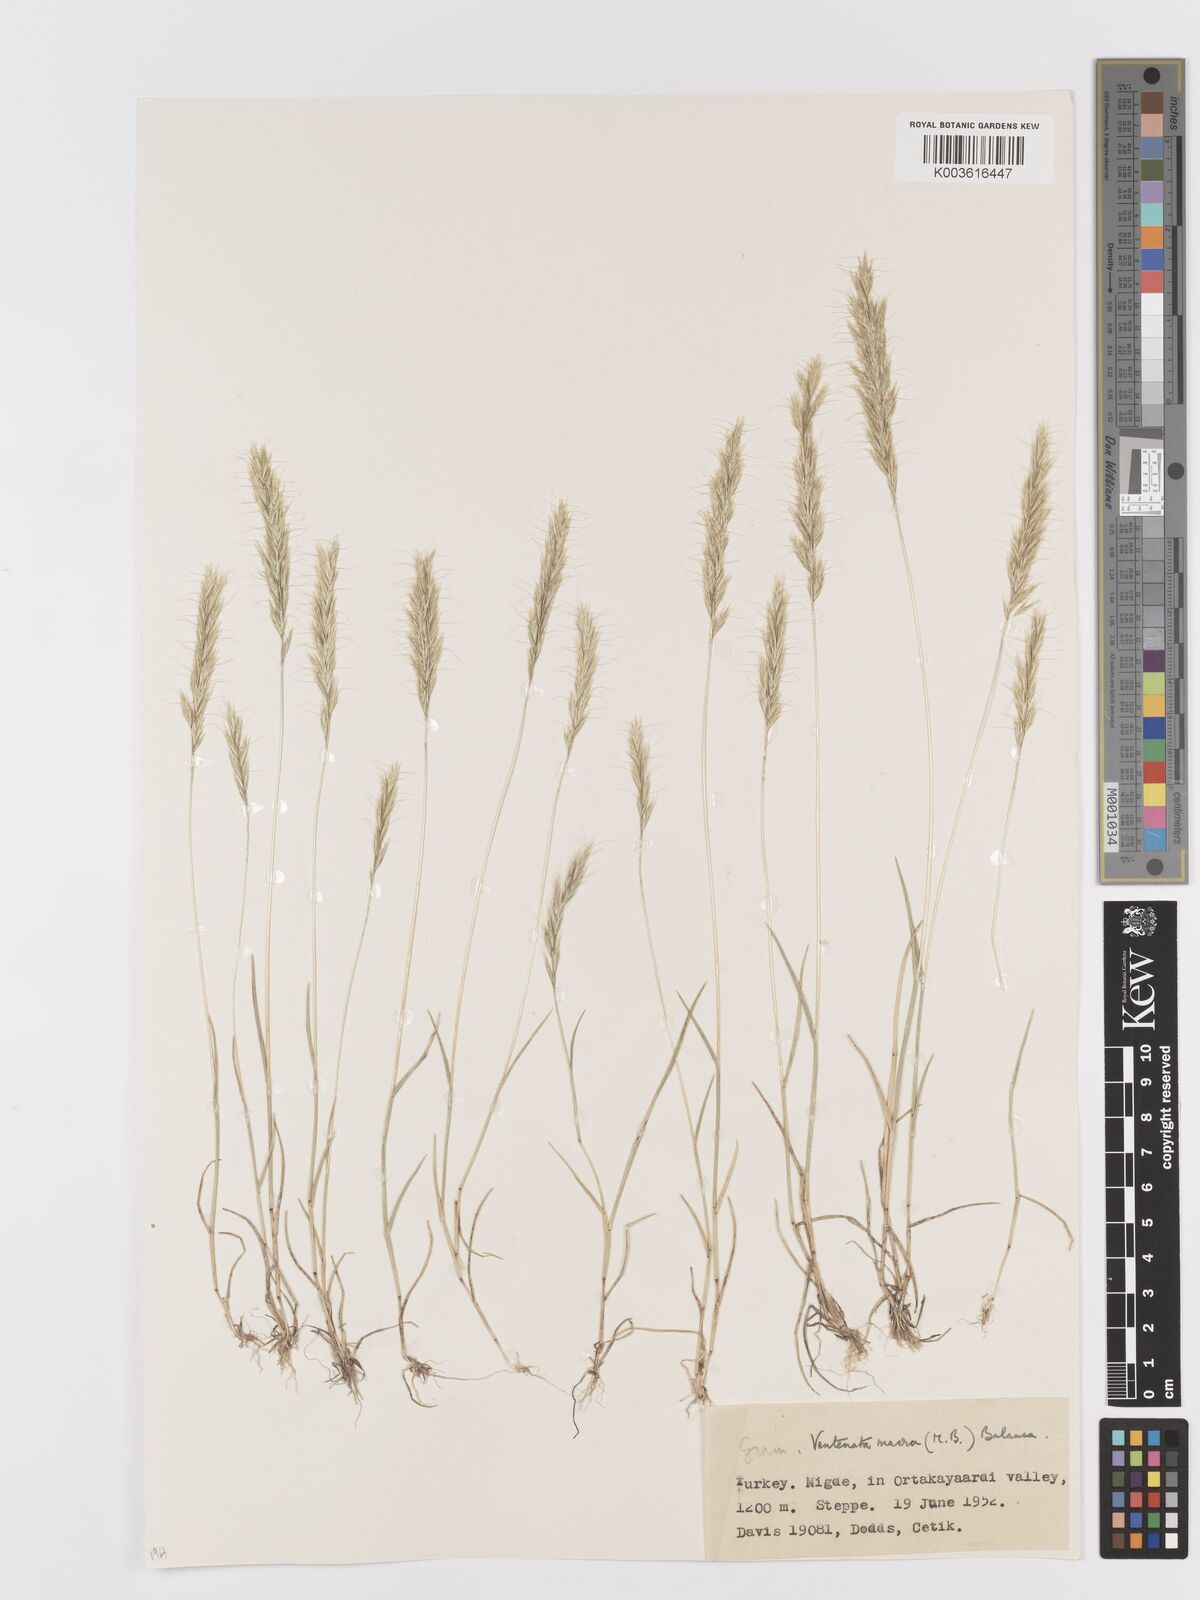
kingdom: Plantae
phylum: Tracheophyta
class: Liliopsida
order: Poales
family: Poaceae
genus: Ventenata
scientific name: Ventenata macra
